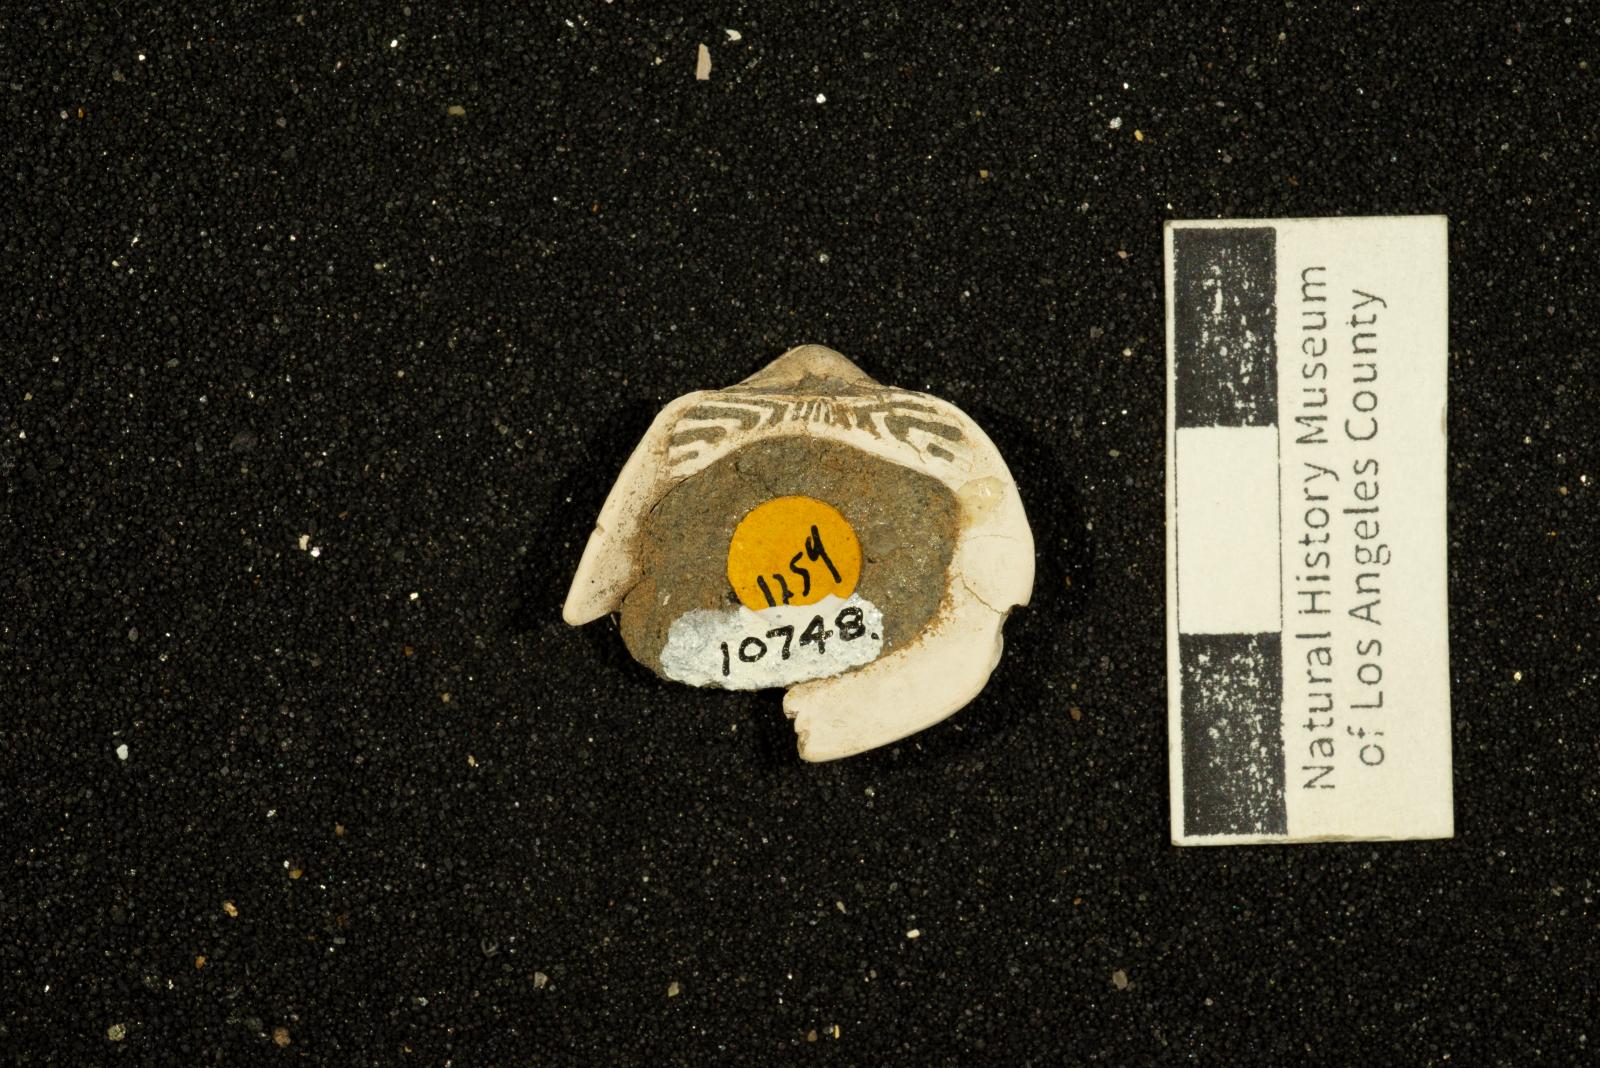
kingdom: Animalia
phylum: Mollusca
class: Bivalvia
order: Arcida
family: Cucullaeidae
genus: Idonearca
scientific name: Idonearca Arca gravida
